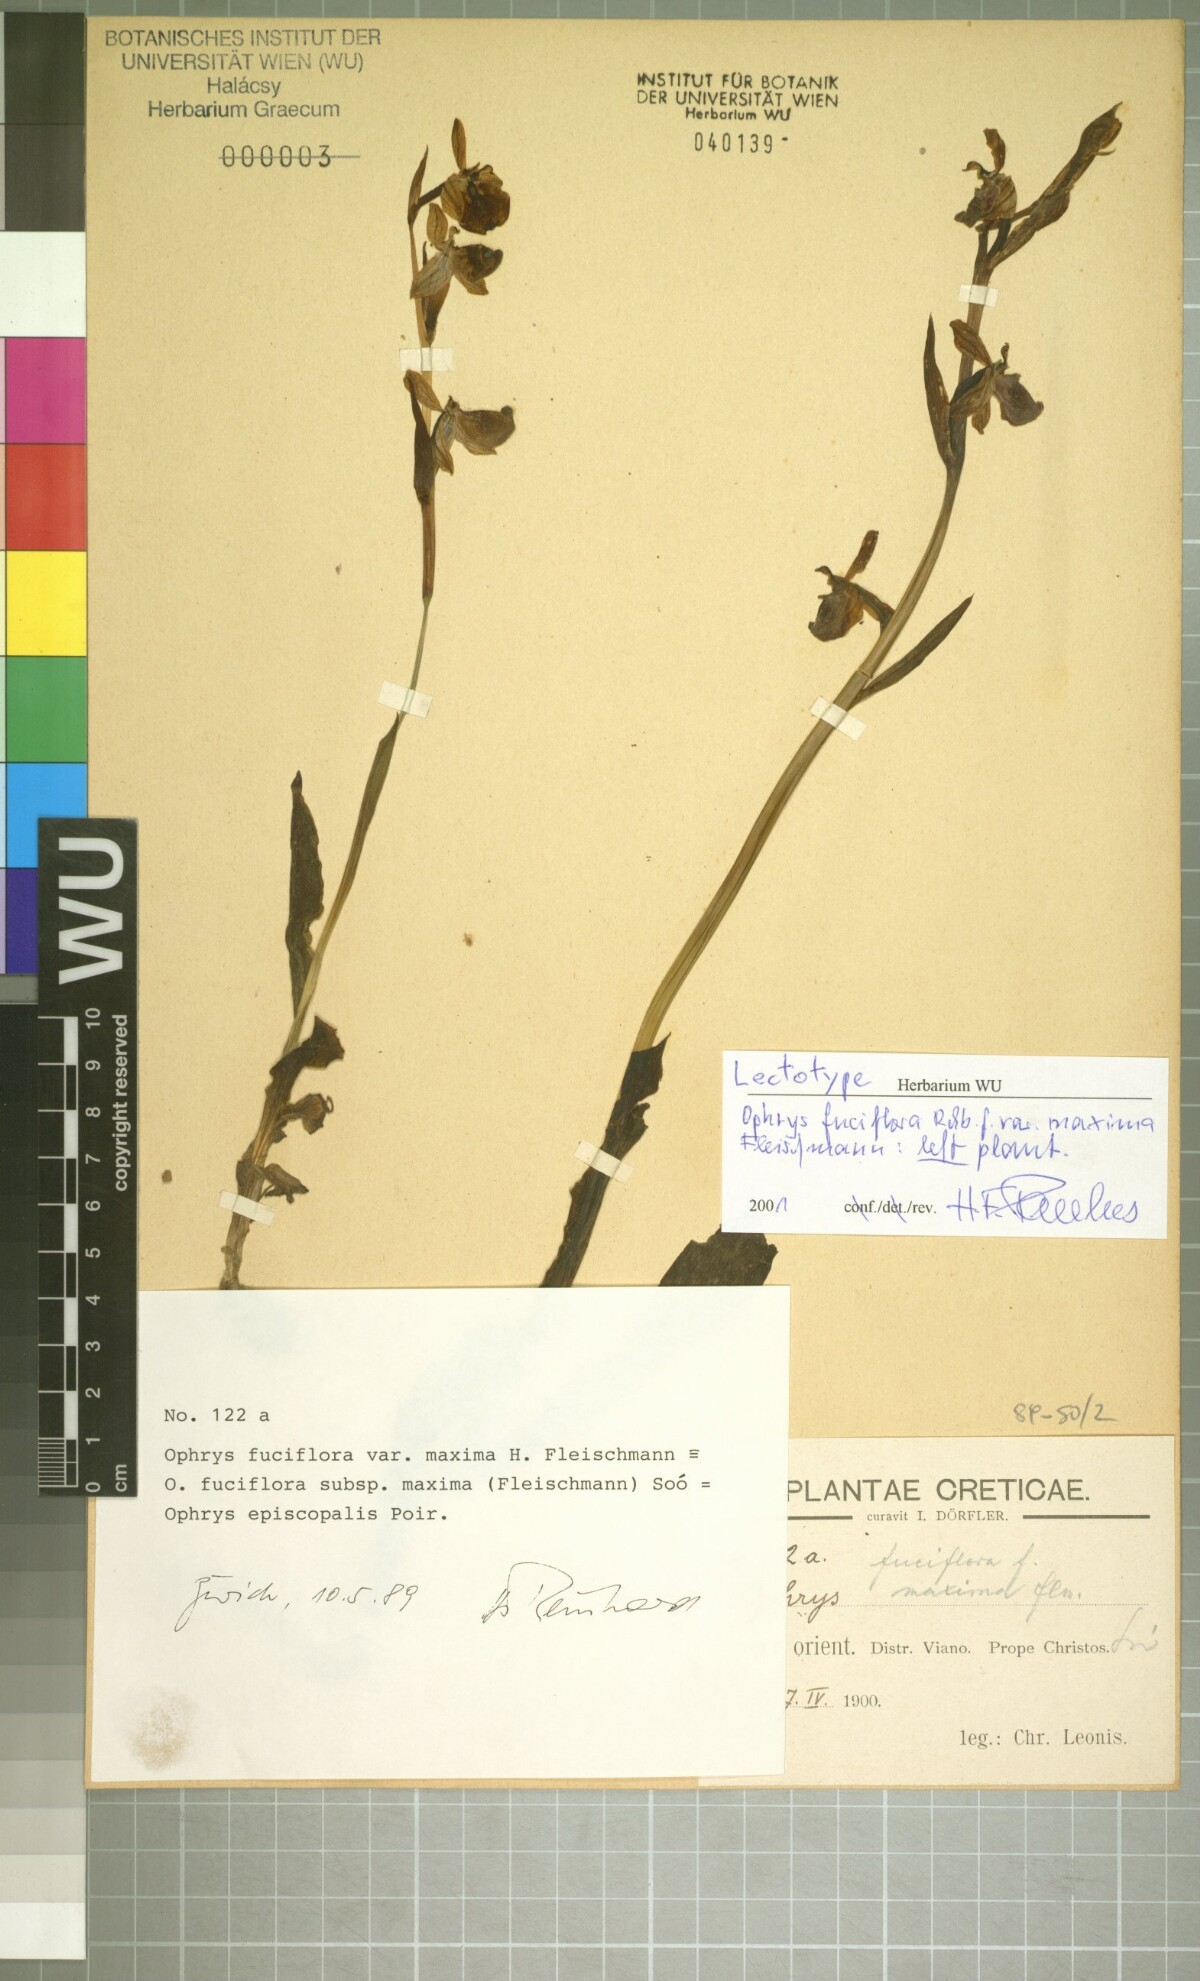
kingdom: Plantae
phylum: Tracheophyta
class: Liliopsida
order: Asparagales
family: Orchidaceae
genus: Ophrys
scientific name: Ophrys holosericea
